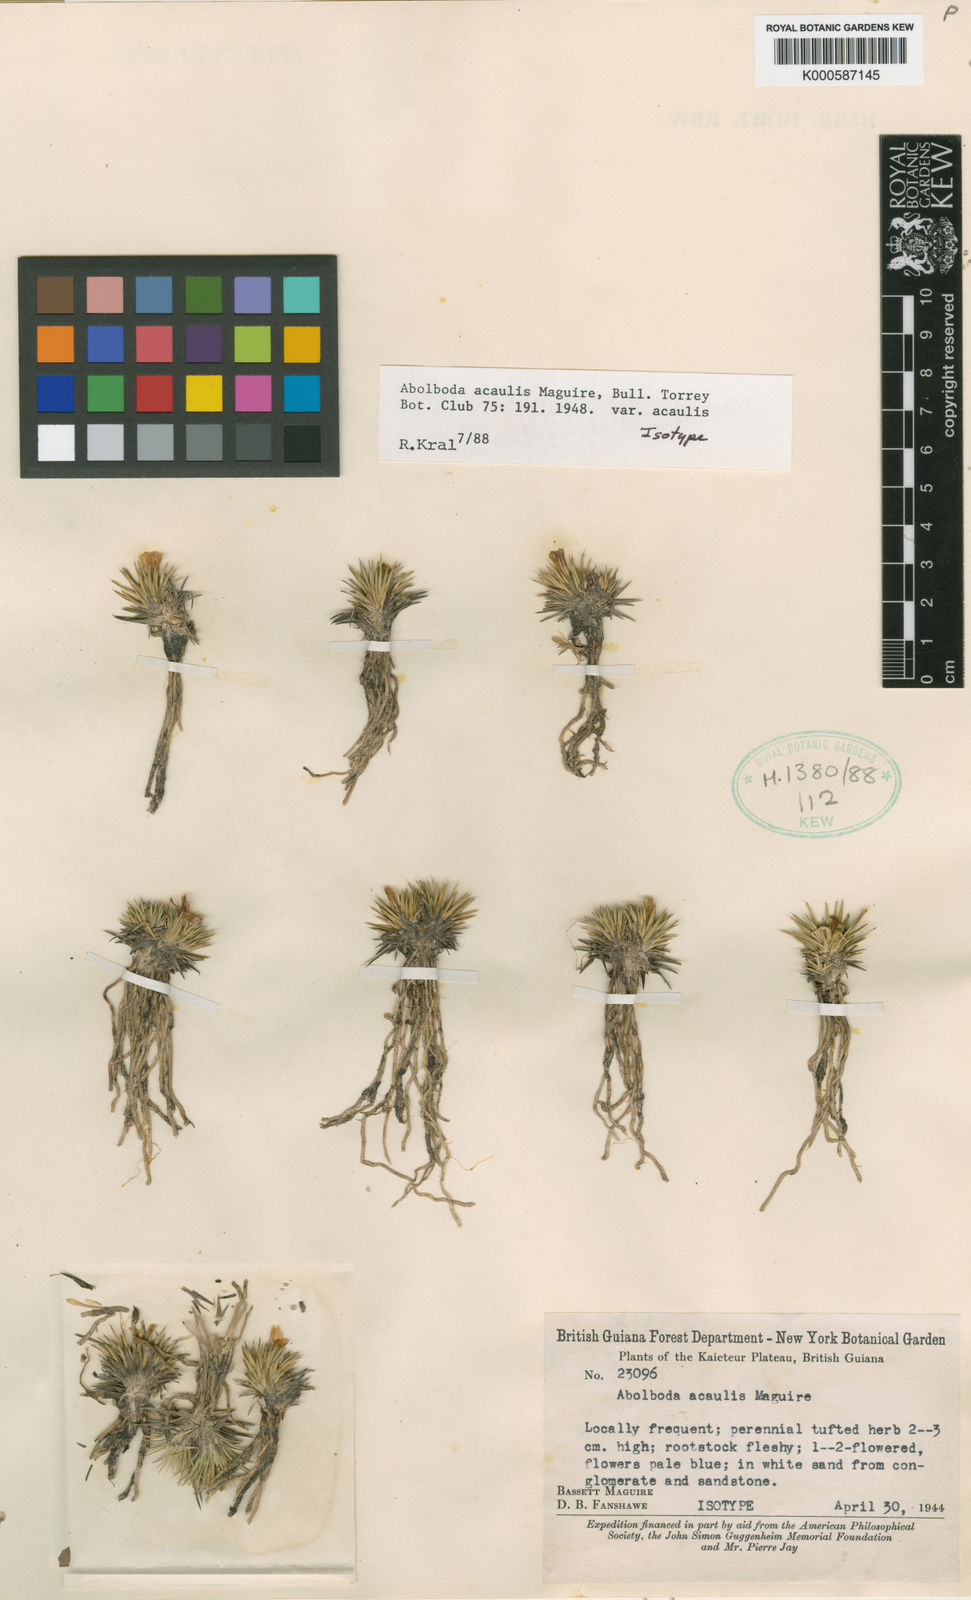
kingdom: Plantae
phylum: Tracheophyta
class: Liliopsida
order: Poales
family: Xyridaceae
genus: Abolboda
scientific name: Abolboda acaulis
